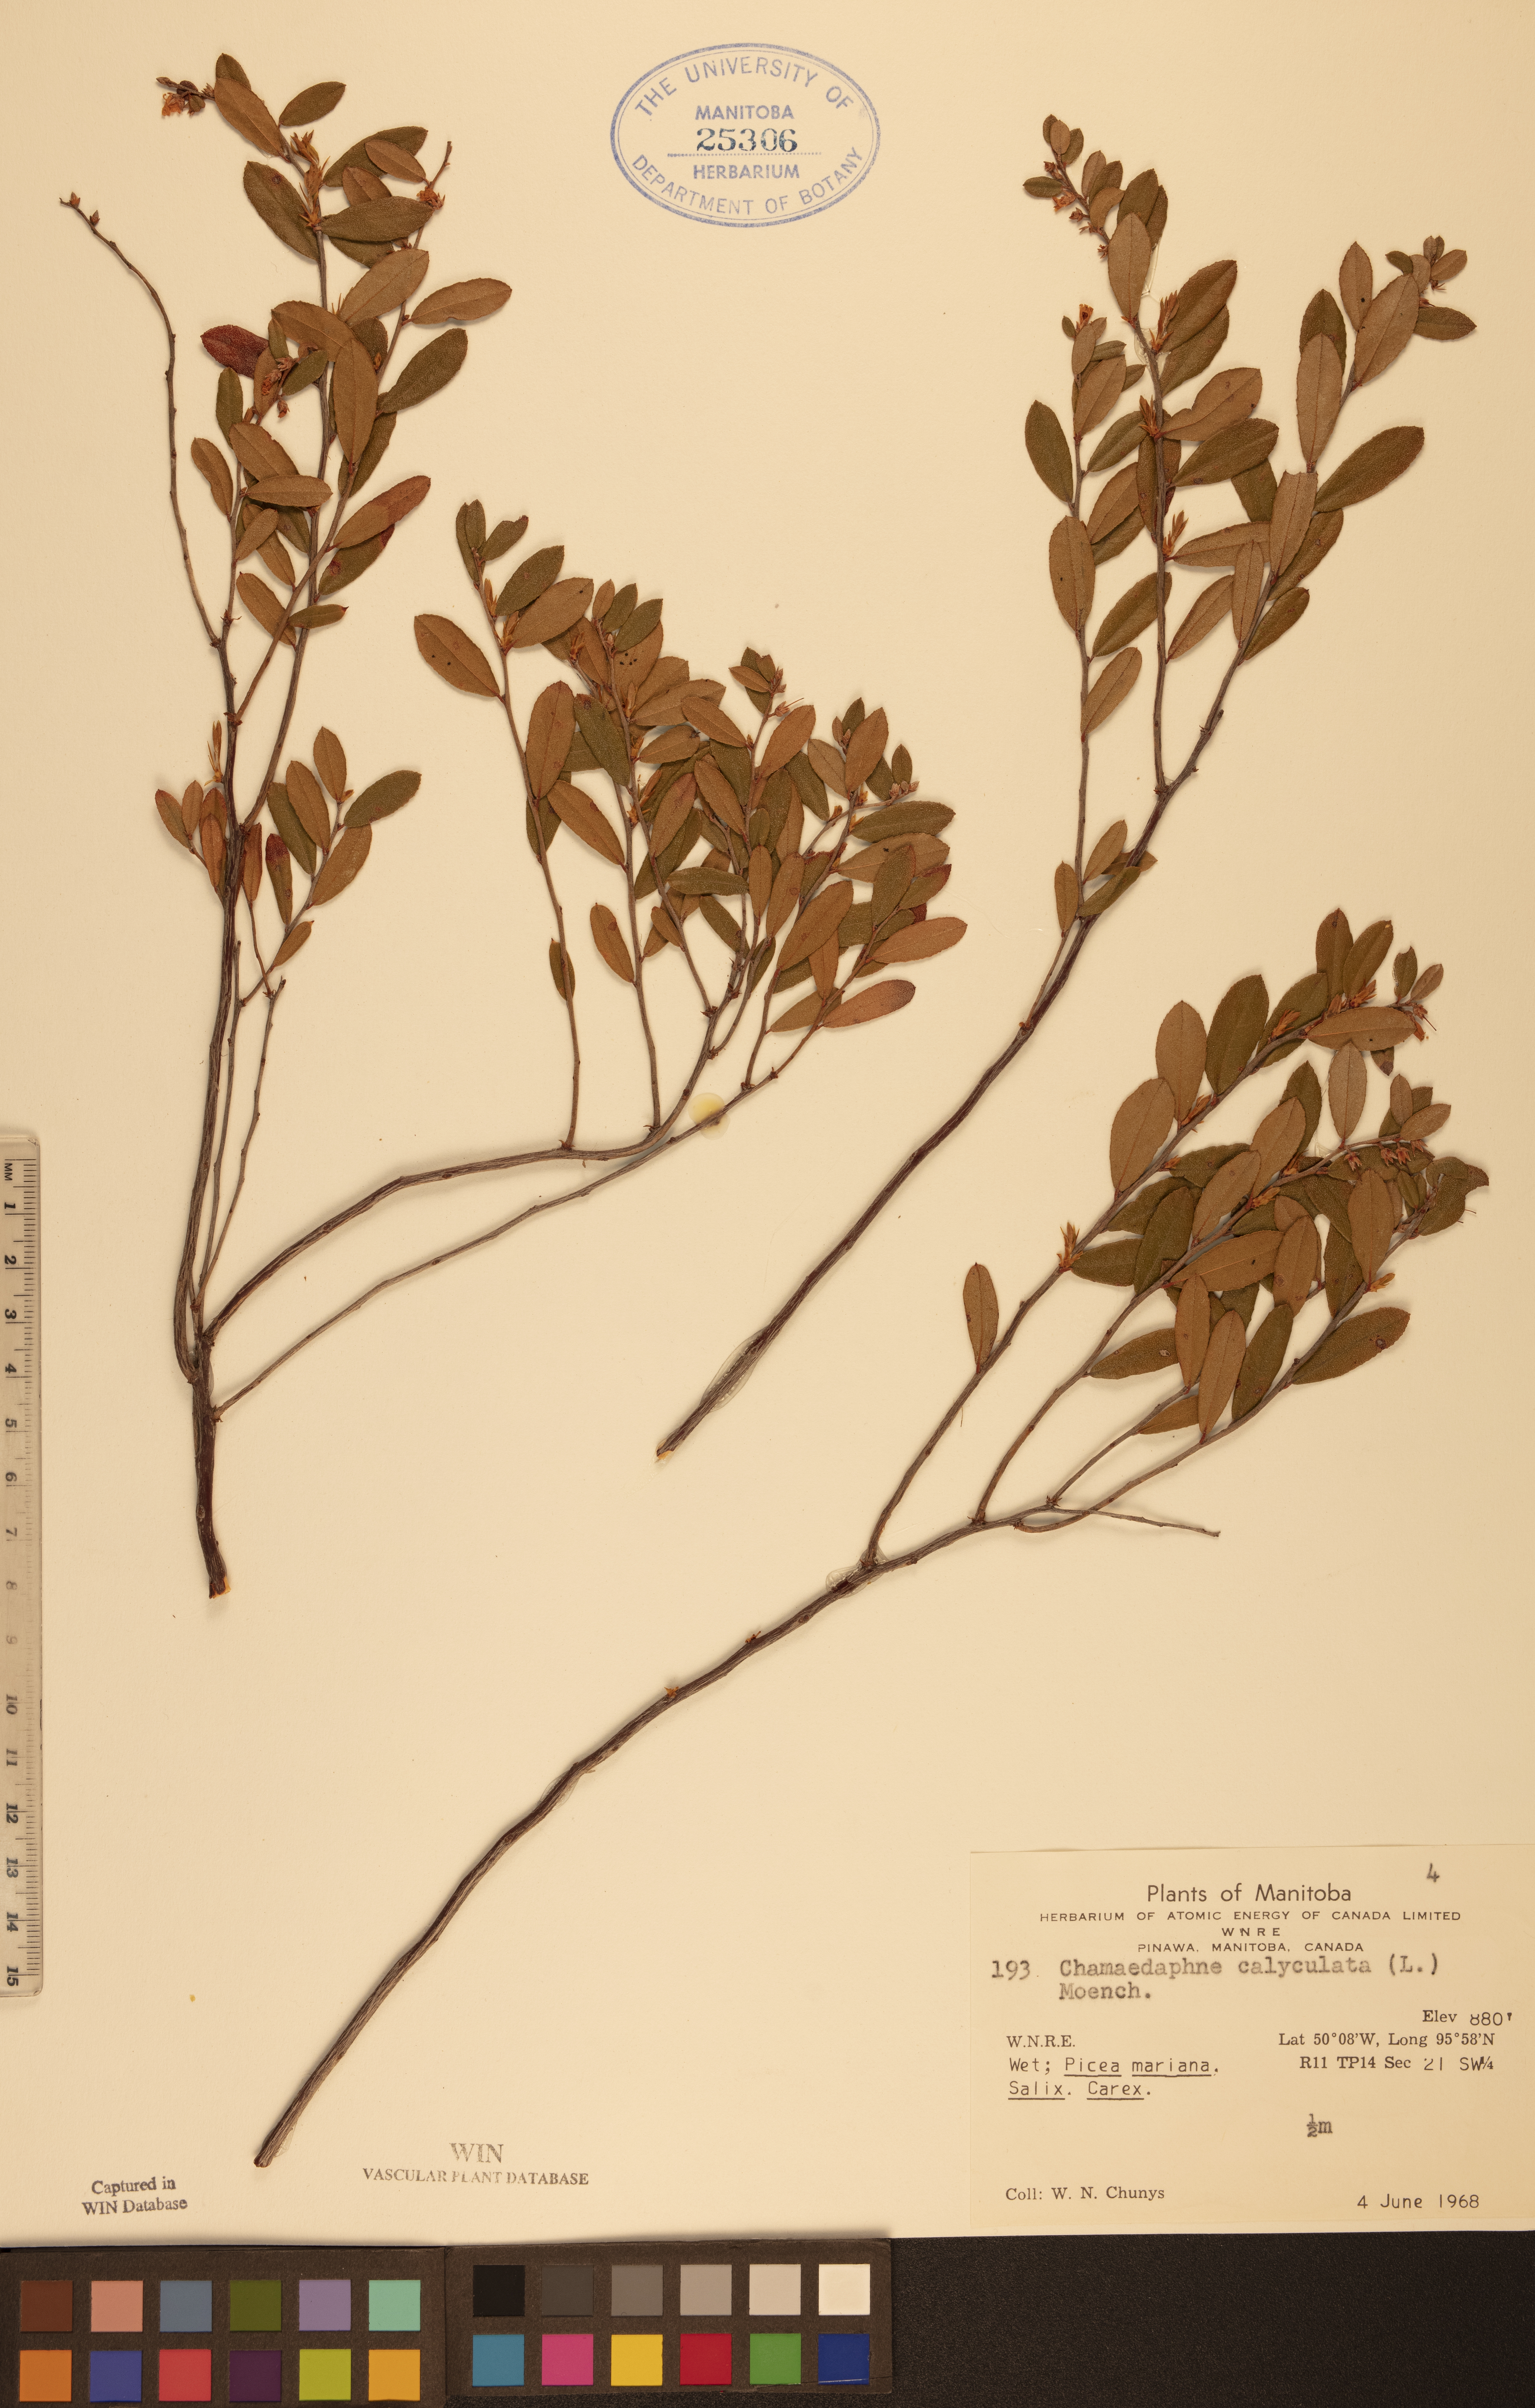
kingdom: Plantae
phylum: Tracheophyta
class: Magnoliopsida
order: Ericales
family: Ericaceae
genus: Chamaedaphne
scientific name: Chamaedaphne calyculata
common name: Leatherleaf
